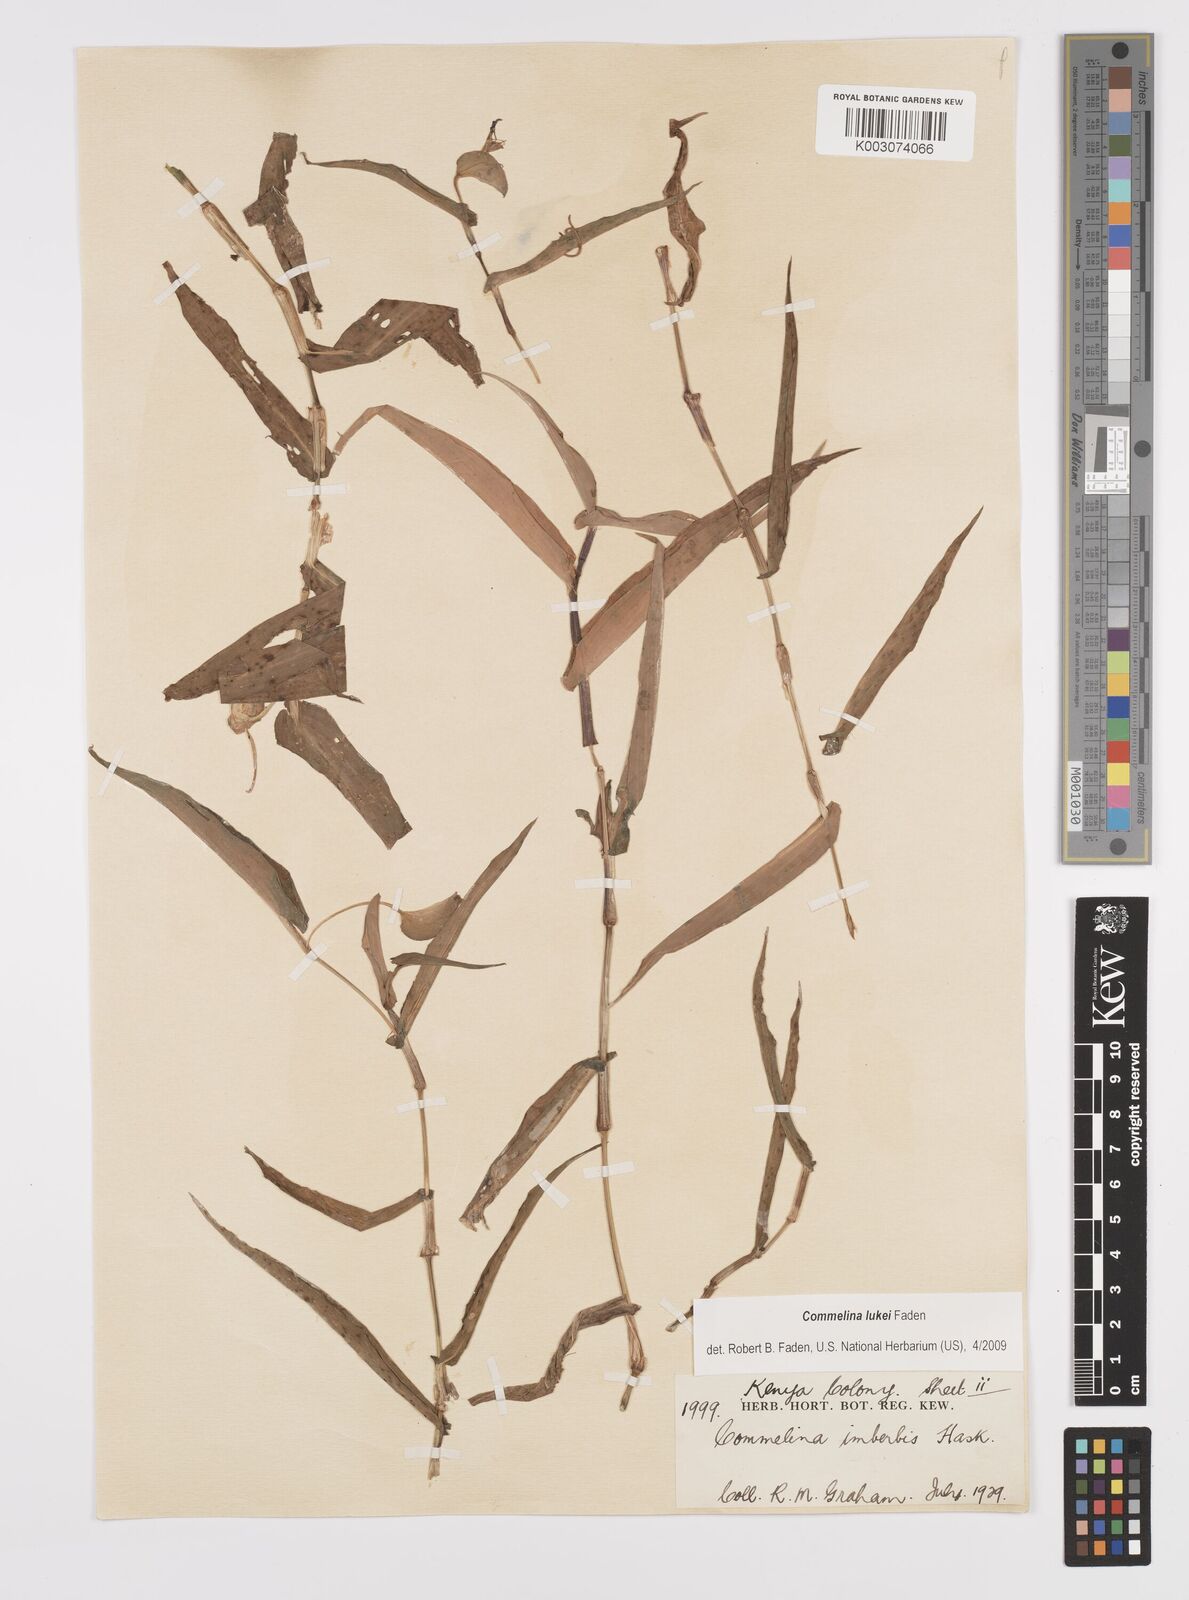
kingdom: Plantae
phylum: Tracheophyta
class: Liliopsida
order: Commelinales
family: Commelinaceae
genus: Commelina
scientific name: Commelina lukei
